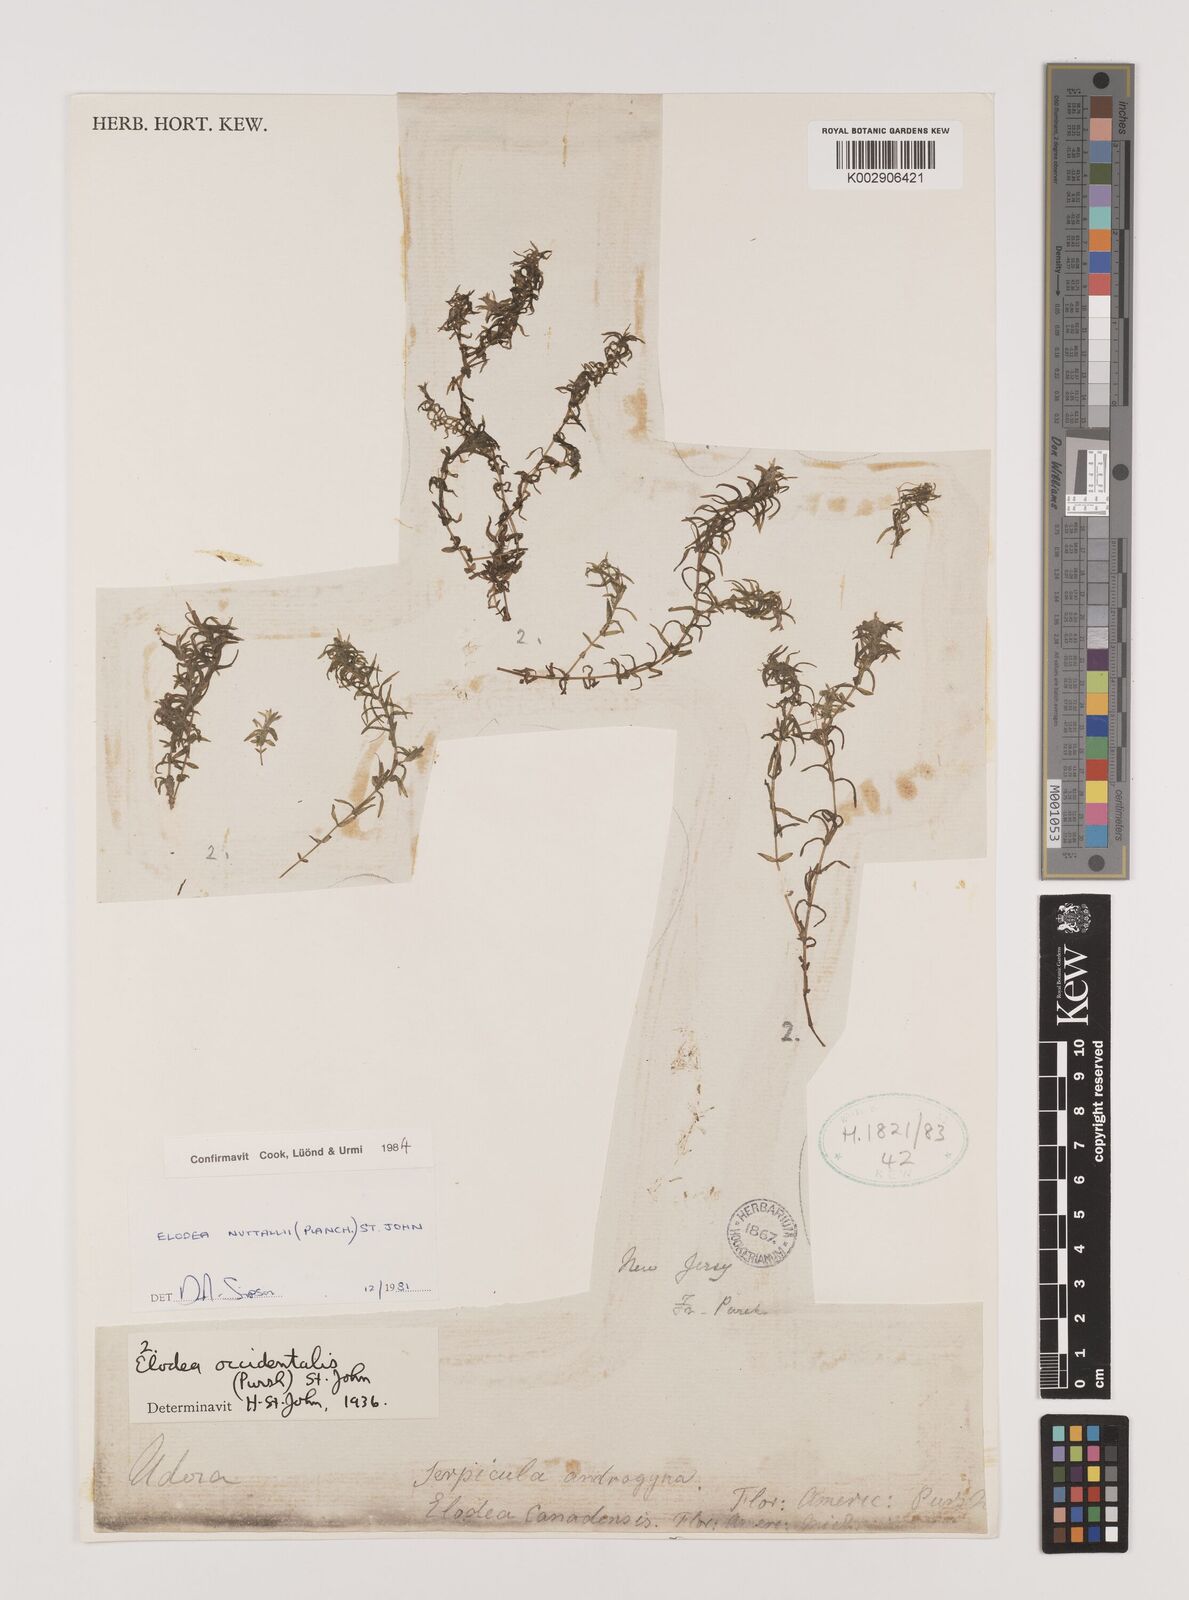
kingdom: Plantae
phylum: Tracheophyta
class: Liliopsida
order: Alismatales
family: Hydrocharitaceae
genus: Elodea
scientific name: Elodea nuttallii
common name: Nuttall's waterweed
